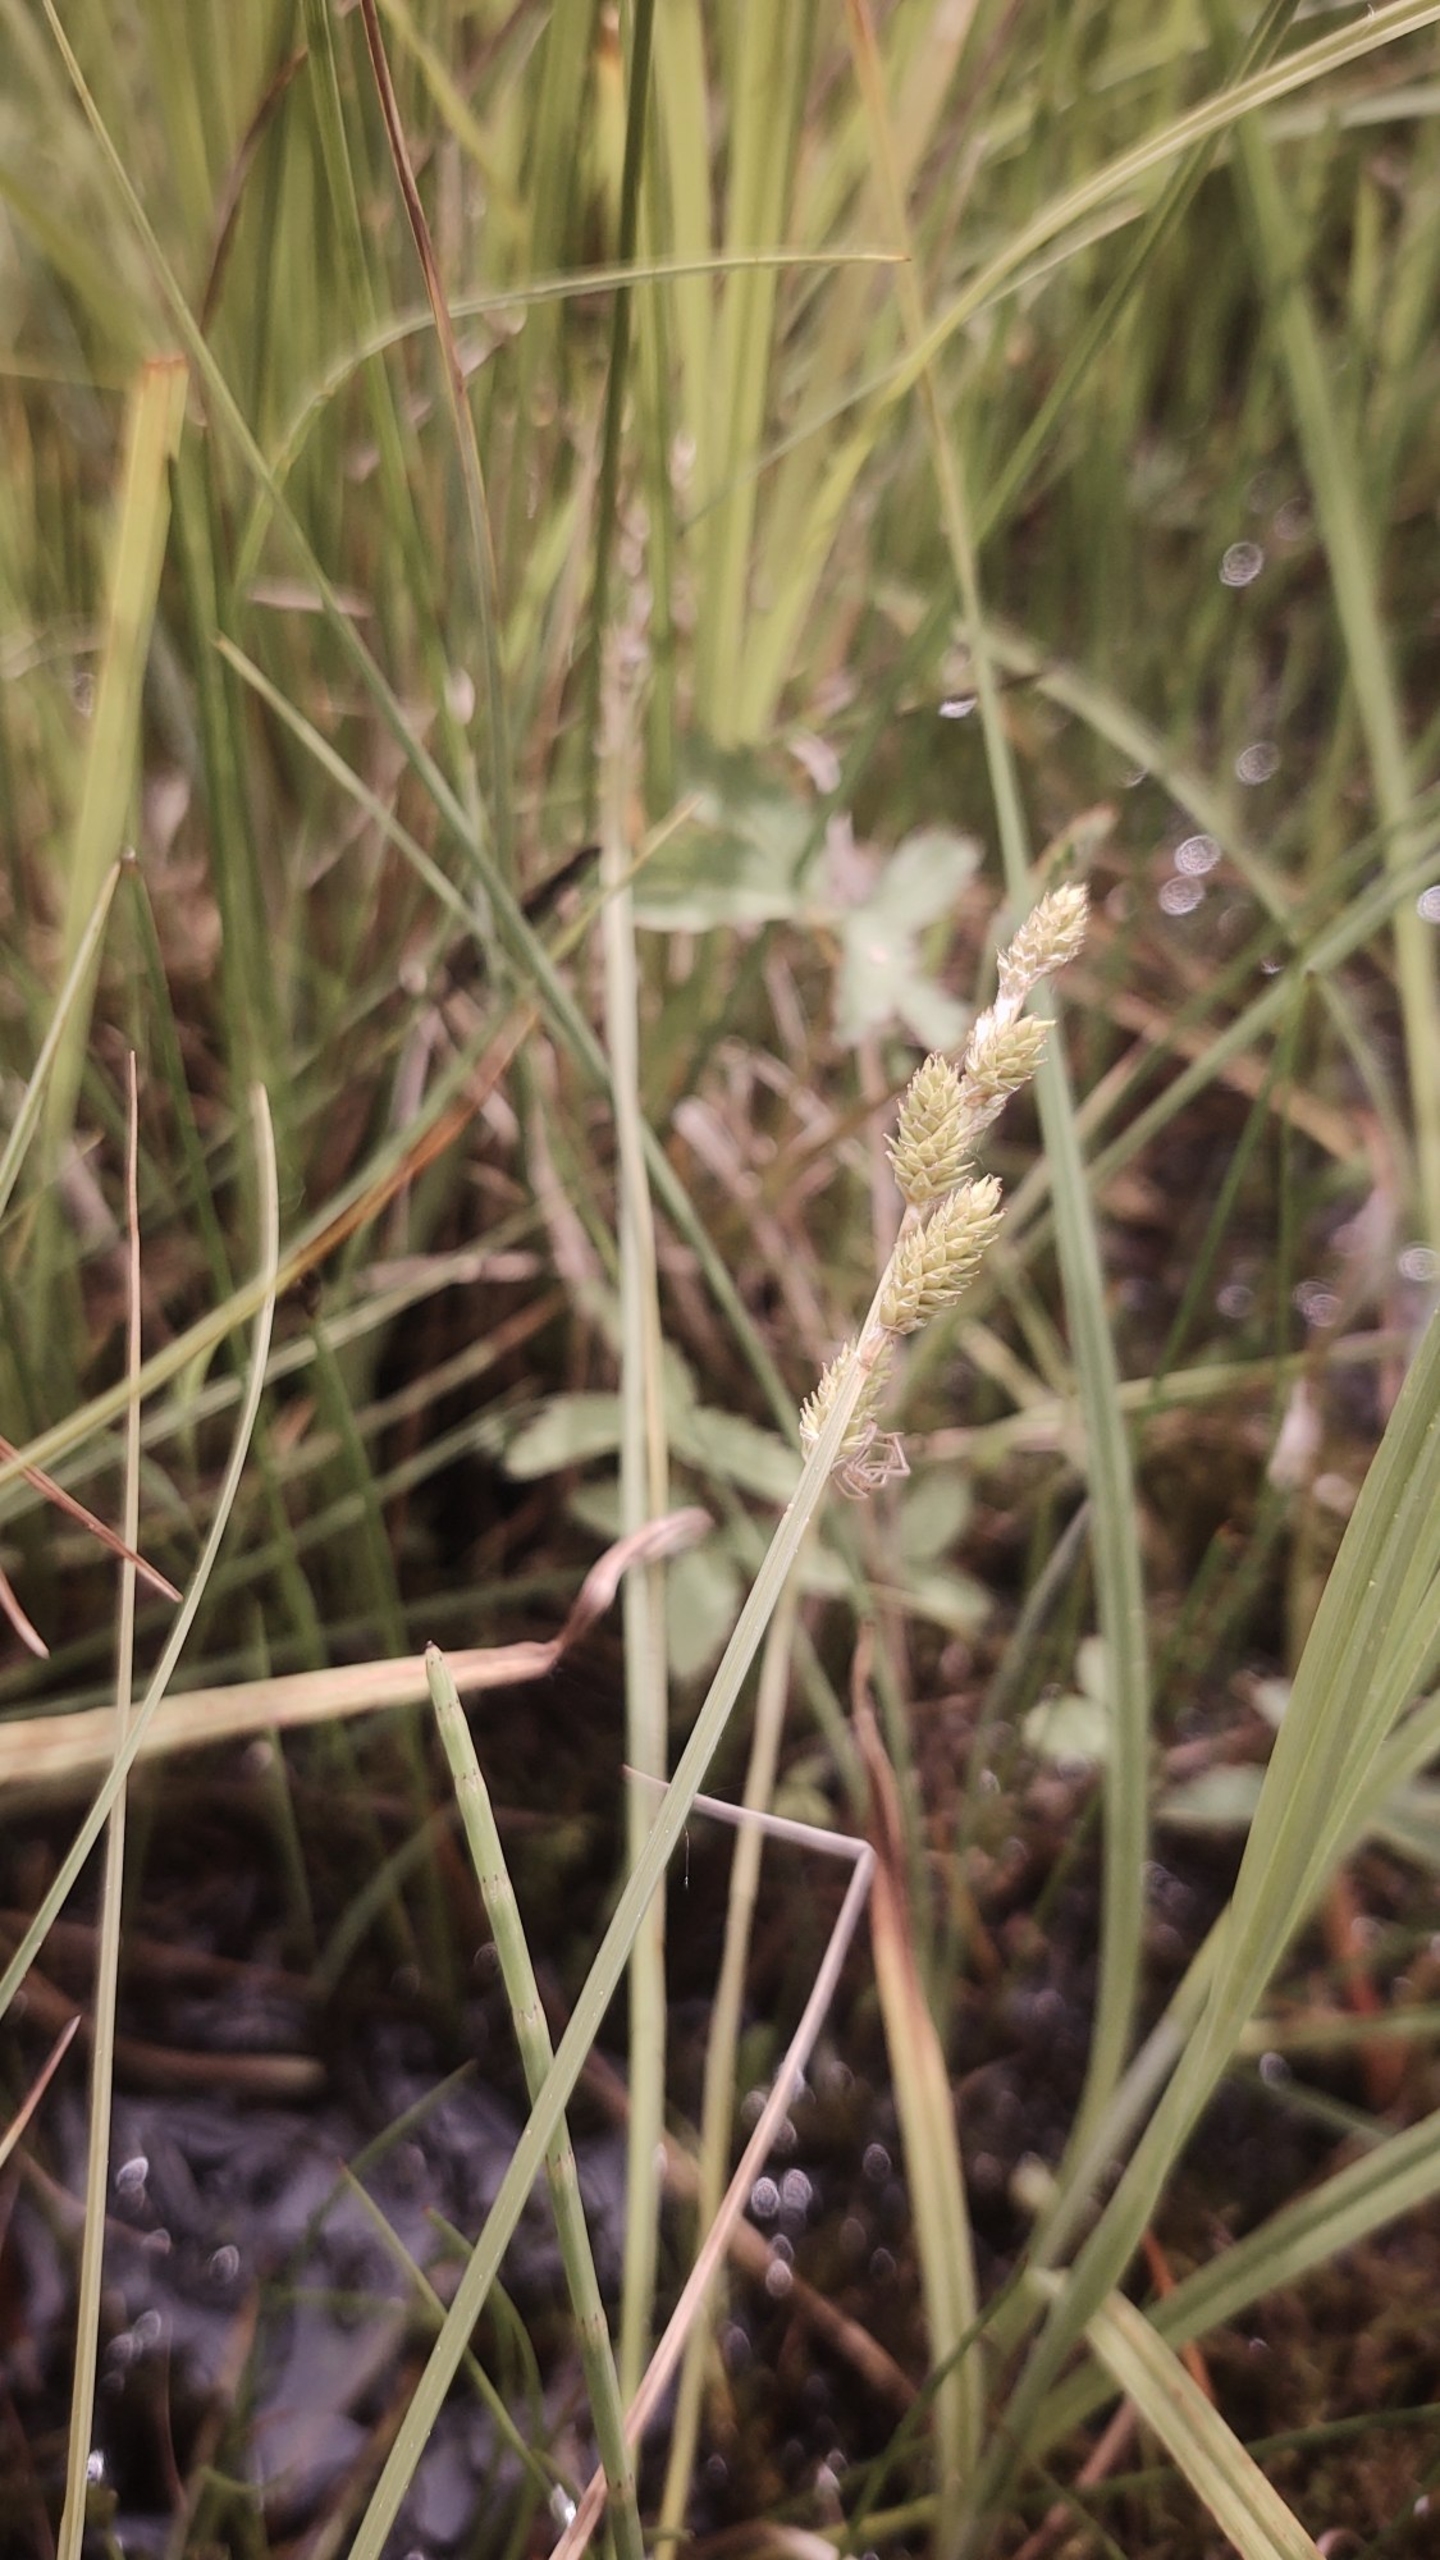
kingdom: Plantae
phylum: Tracheophyta
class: Liliopsida
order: Poales
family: Cyperaceae
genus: Carex
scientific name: Carex canescens
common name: Grå star
